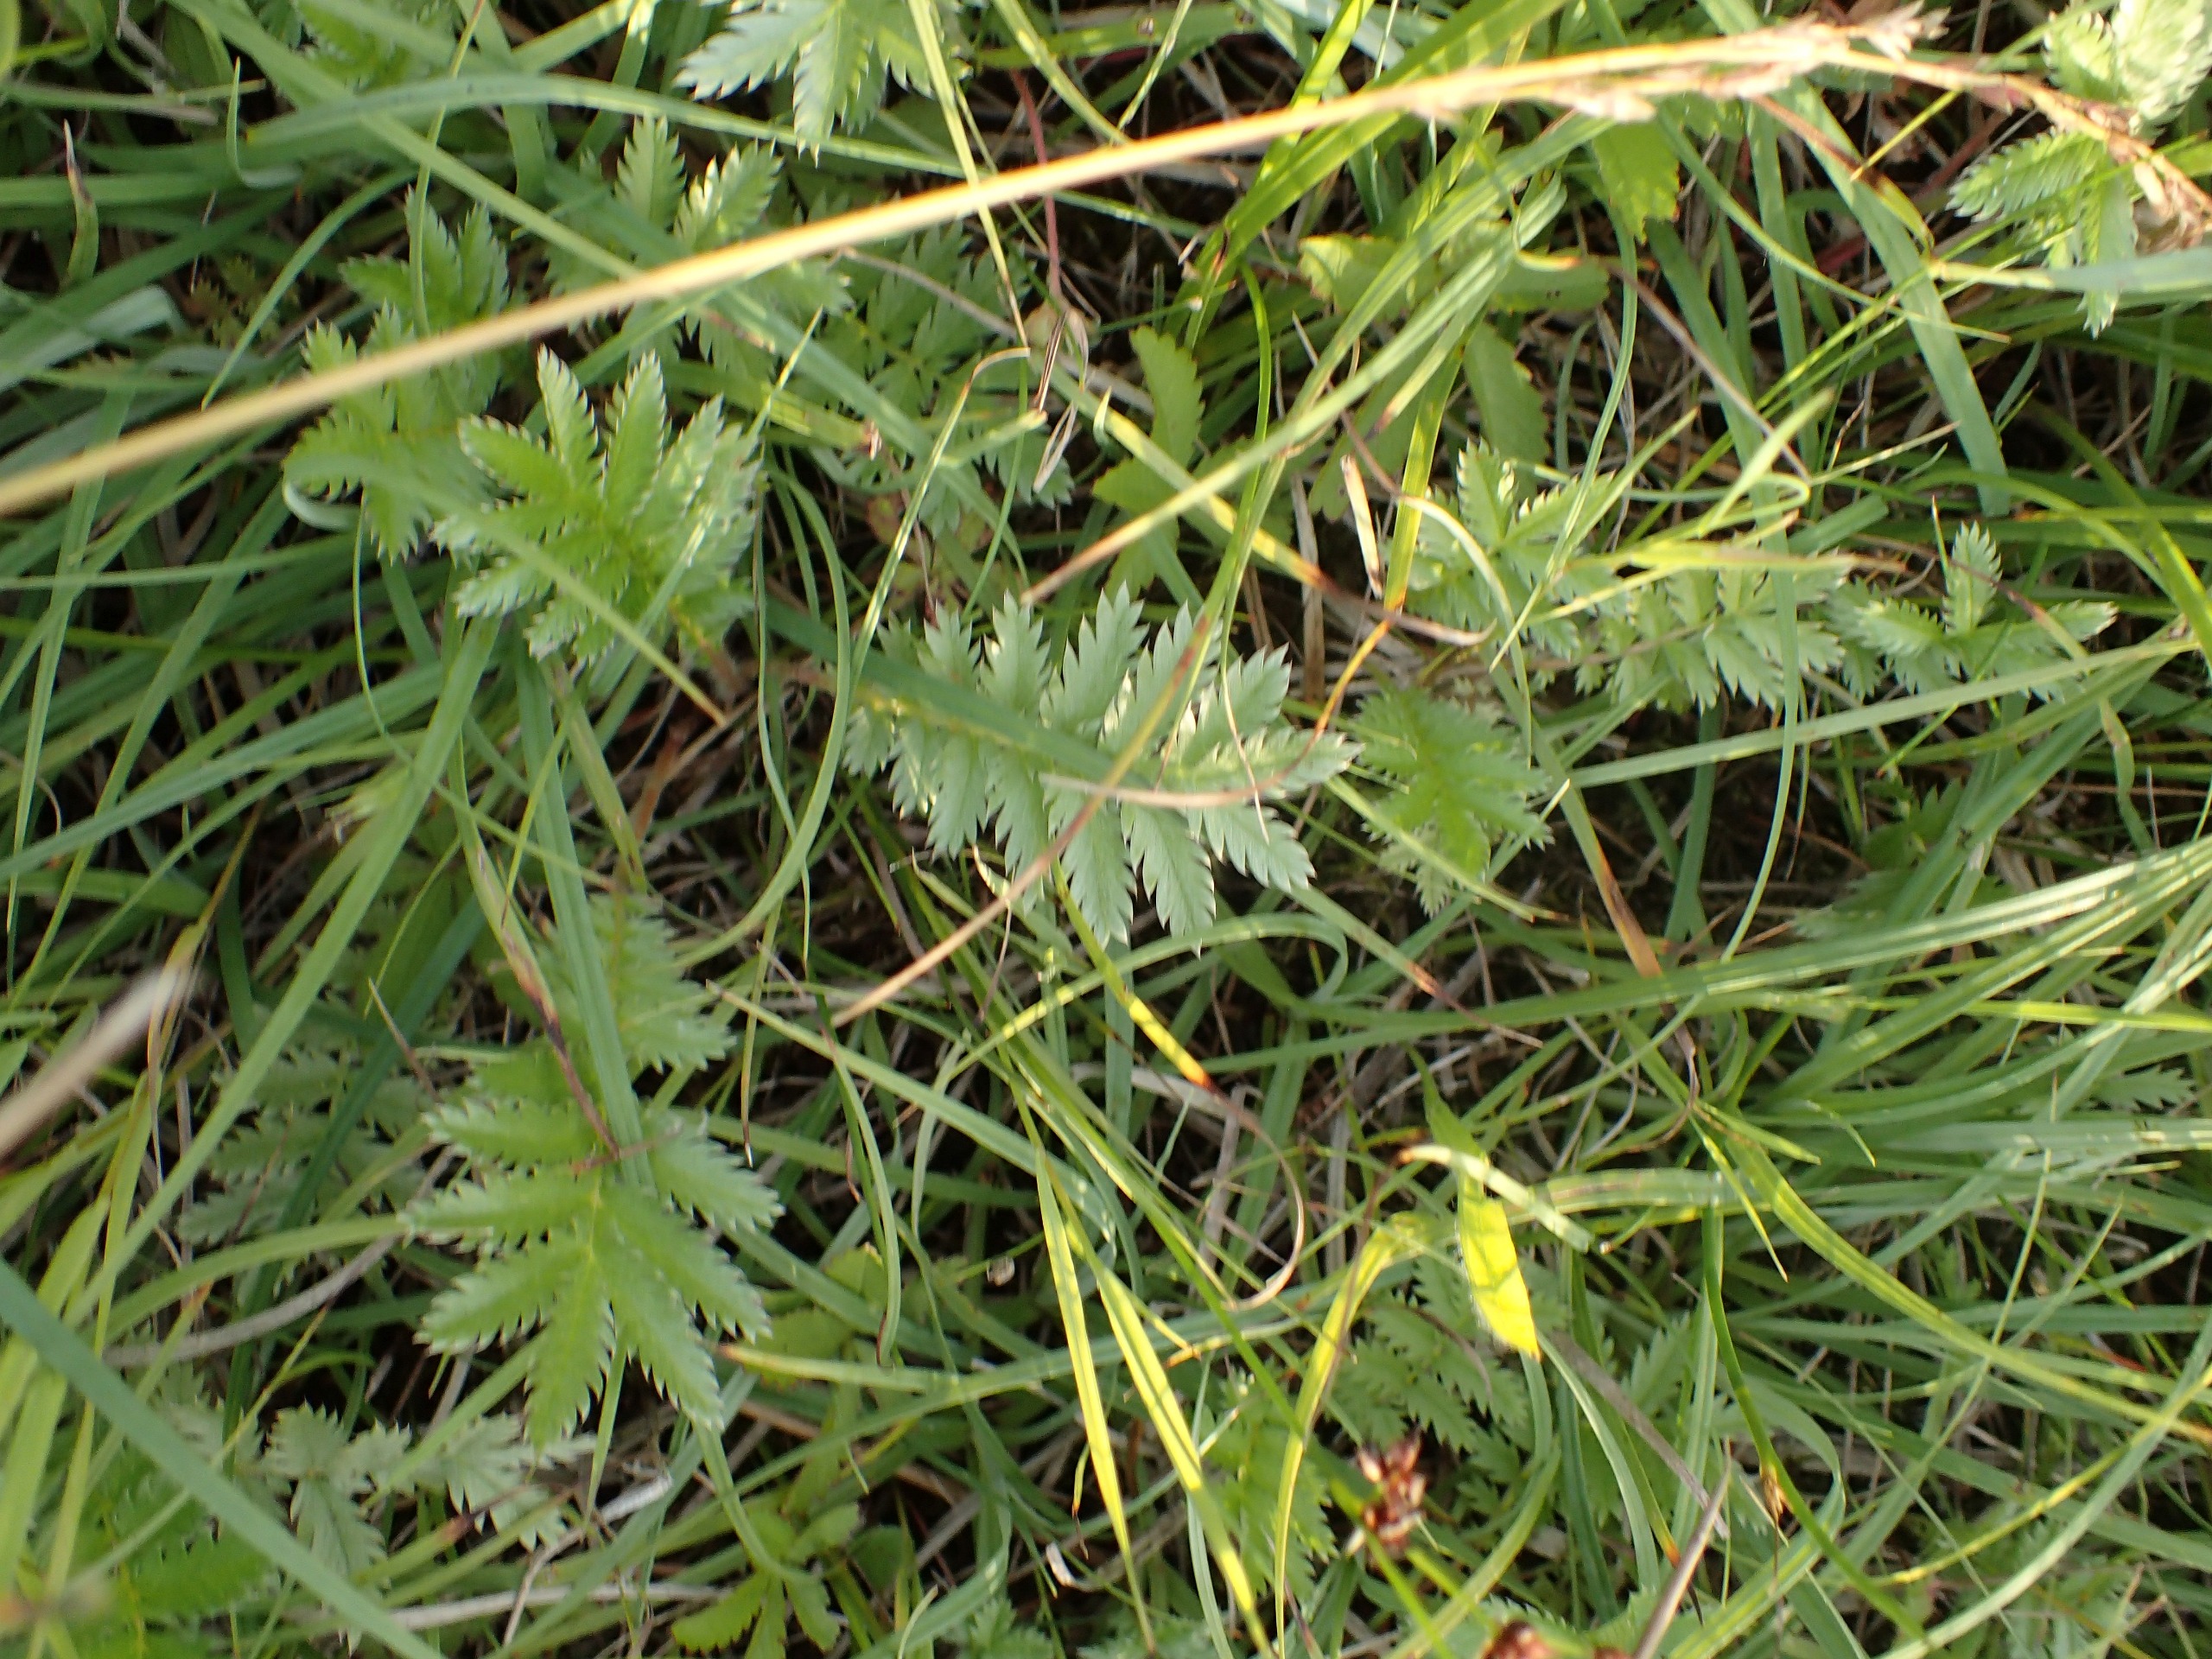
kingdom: Plantae
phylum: Tracheophyta
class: Magnoliopsida
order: Rosales
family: Rosaceae
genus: Argentina
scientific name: Argentina anserina
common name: Gåsepotentil
